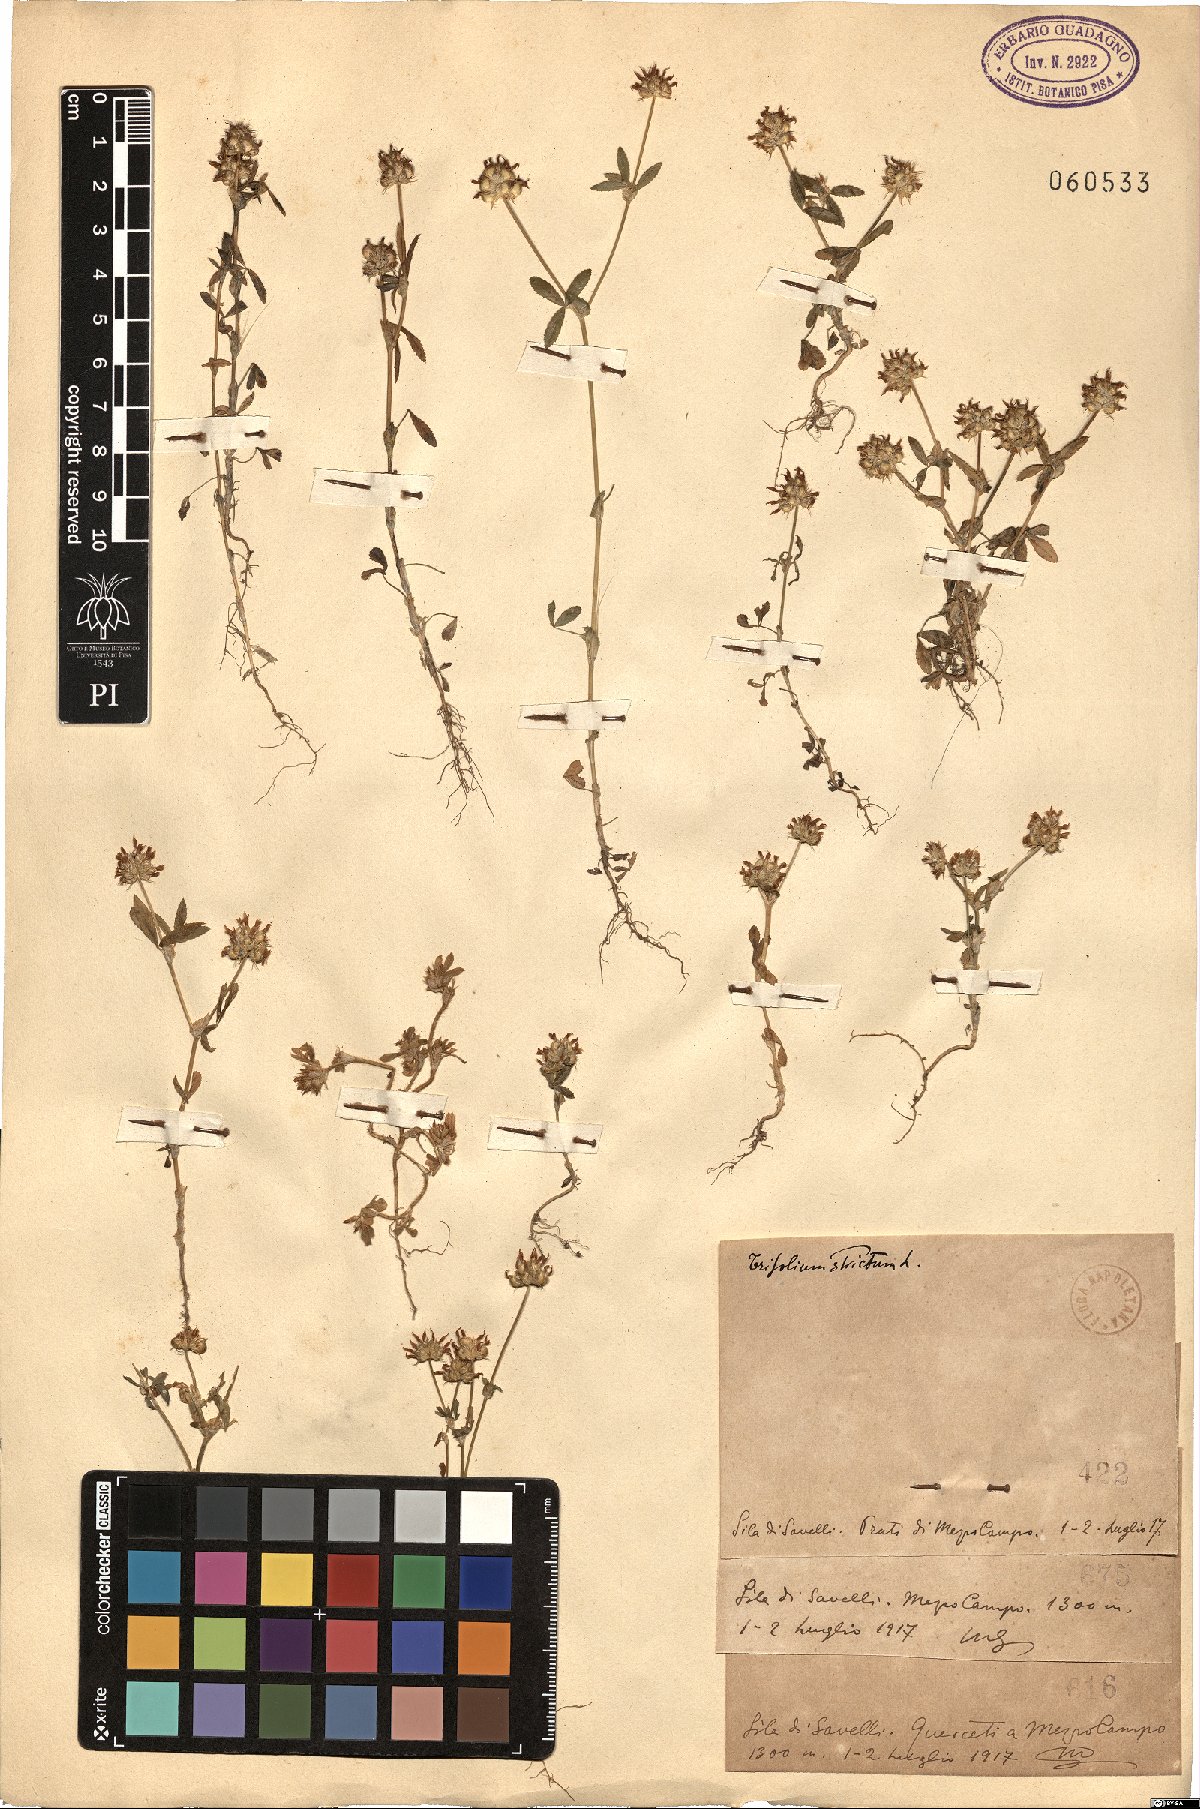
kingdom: Plantae
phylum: Tracheophyta
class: Magnoliopsida
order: Fabales
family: Fabaceae
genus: Trifolium
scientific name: Trifolium strictum
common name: Upright clover
